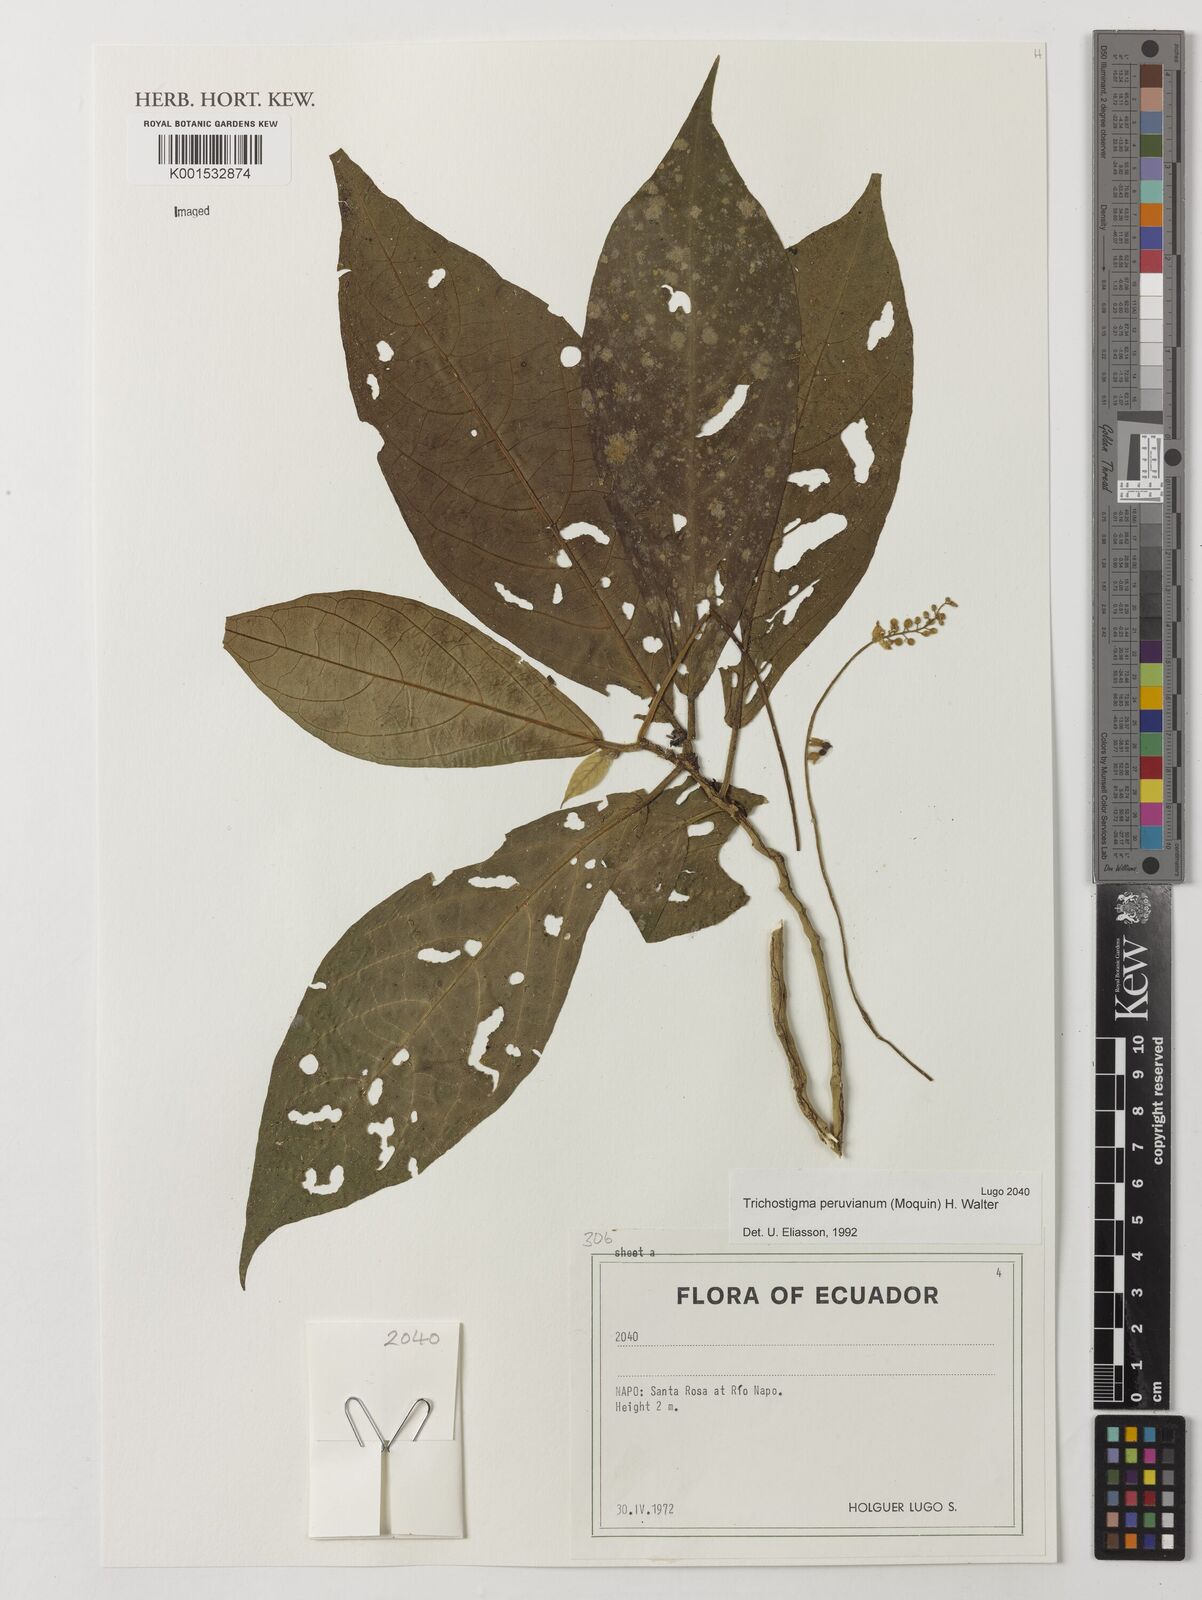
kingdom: Plantae
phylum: Tracheophyta
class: Magnoliopsida
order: Caryophyllales
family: Phytolaccaceae
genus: Trichostigma
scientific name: Trichostigma peruvianum
